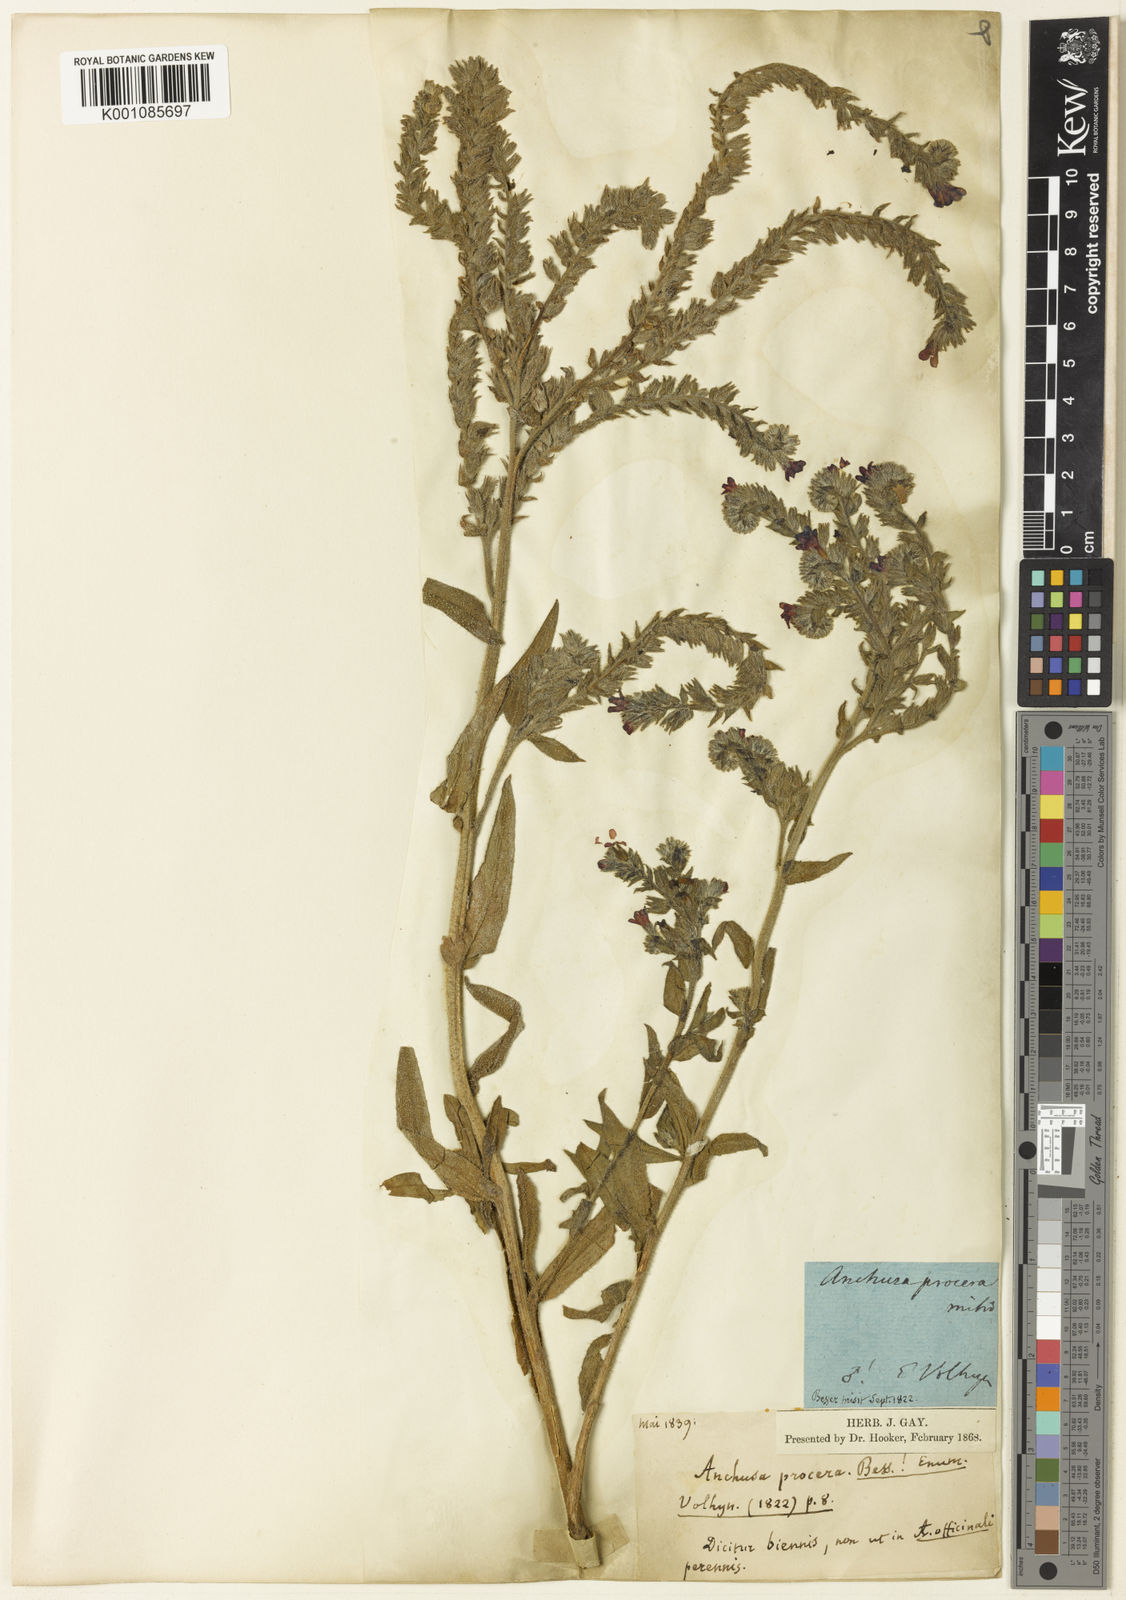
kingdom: Plantae
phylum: Tracheophyta
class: Magnoliopsida
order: Boraginales
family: Boraginaceae
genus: Anchusa
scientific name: Anchusa officinalis
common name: Alkanet
